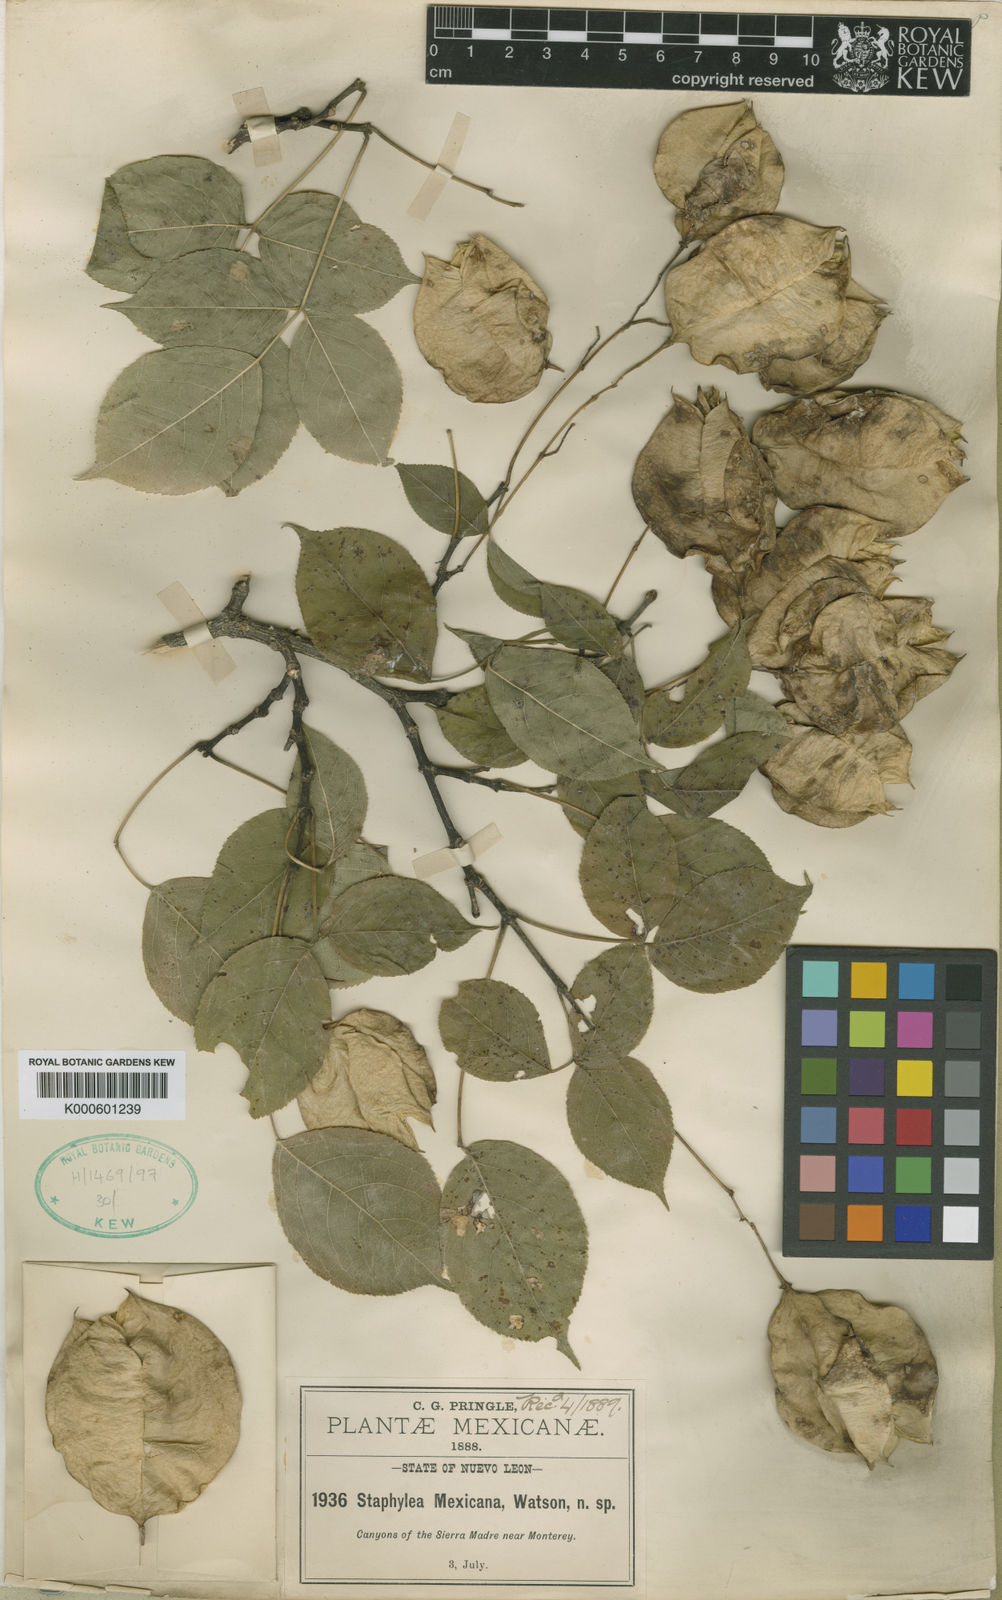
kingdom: Plantae
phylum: Tracheophyta
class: Magnoliopsida
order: Crossosomatales
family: Staphyleaceae
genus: Staphylea
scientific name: Staphylea
